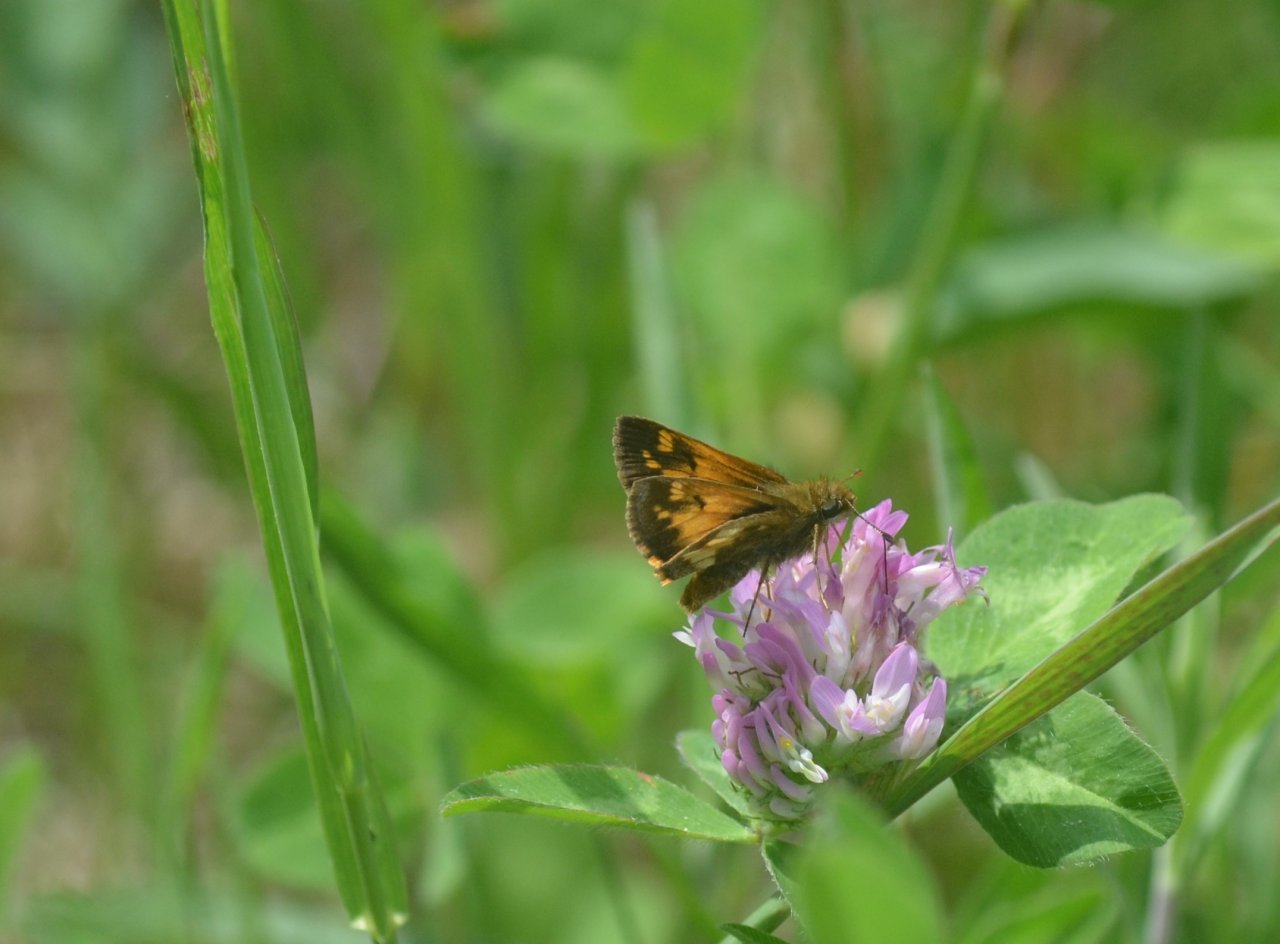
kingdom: Animalia
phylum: Arthropoda
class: Insecta
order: Lepidoptera
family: Hesperiidae
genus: Lon
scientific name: Lon hobomok
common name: Hobomok Skipper
